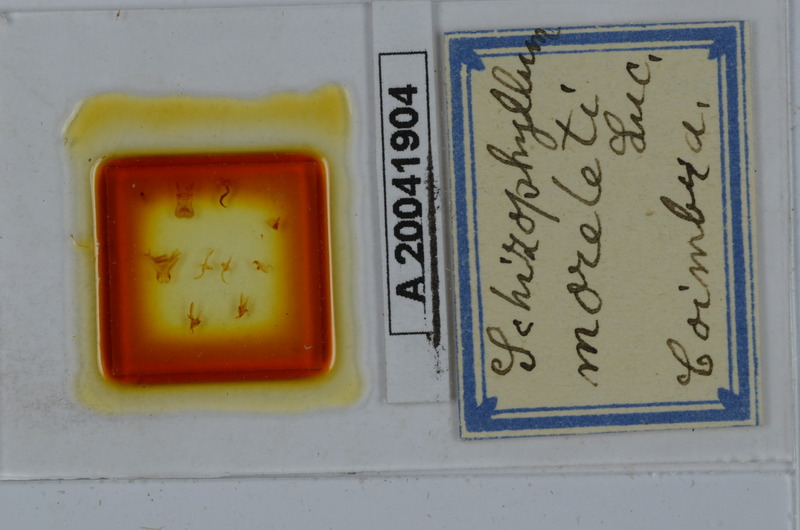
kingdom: Animalia
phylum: Arthropoda
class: Diplopoda
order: Julida
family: Julidae
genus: Ommatoiulus
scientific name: Ommatoiulus moreleti
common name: Portuguese millipede
